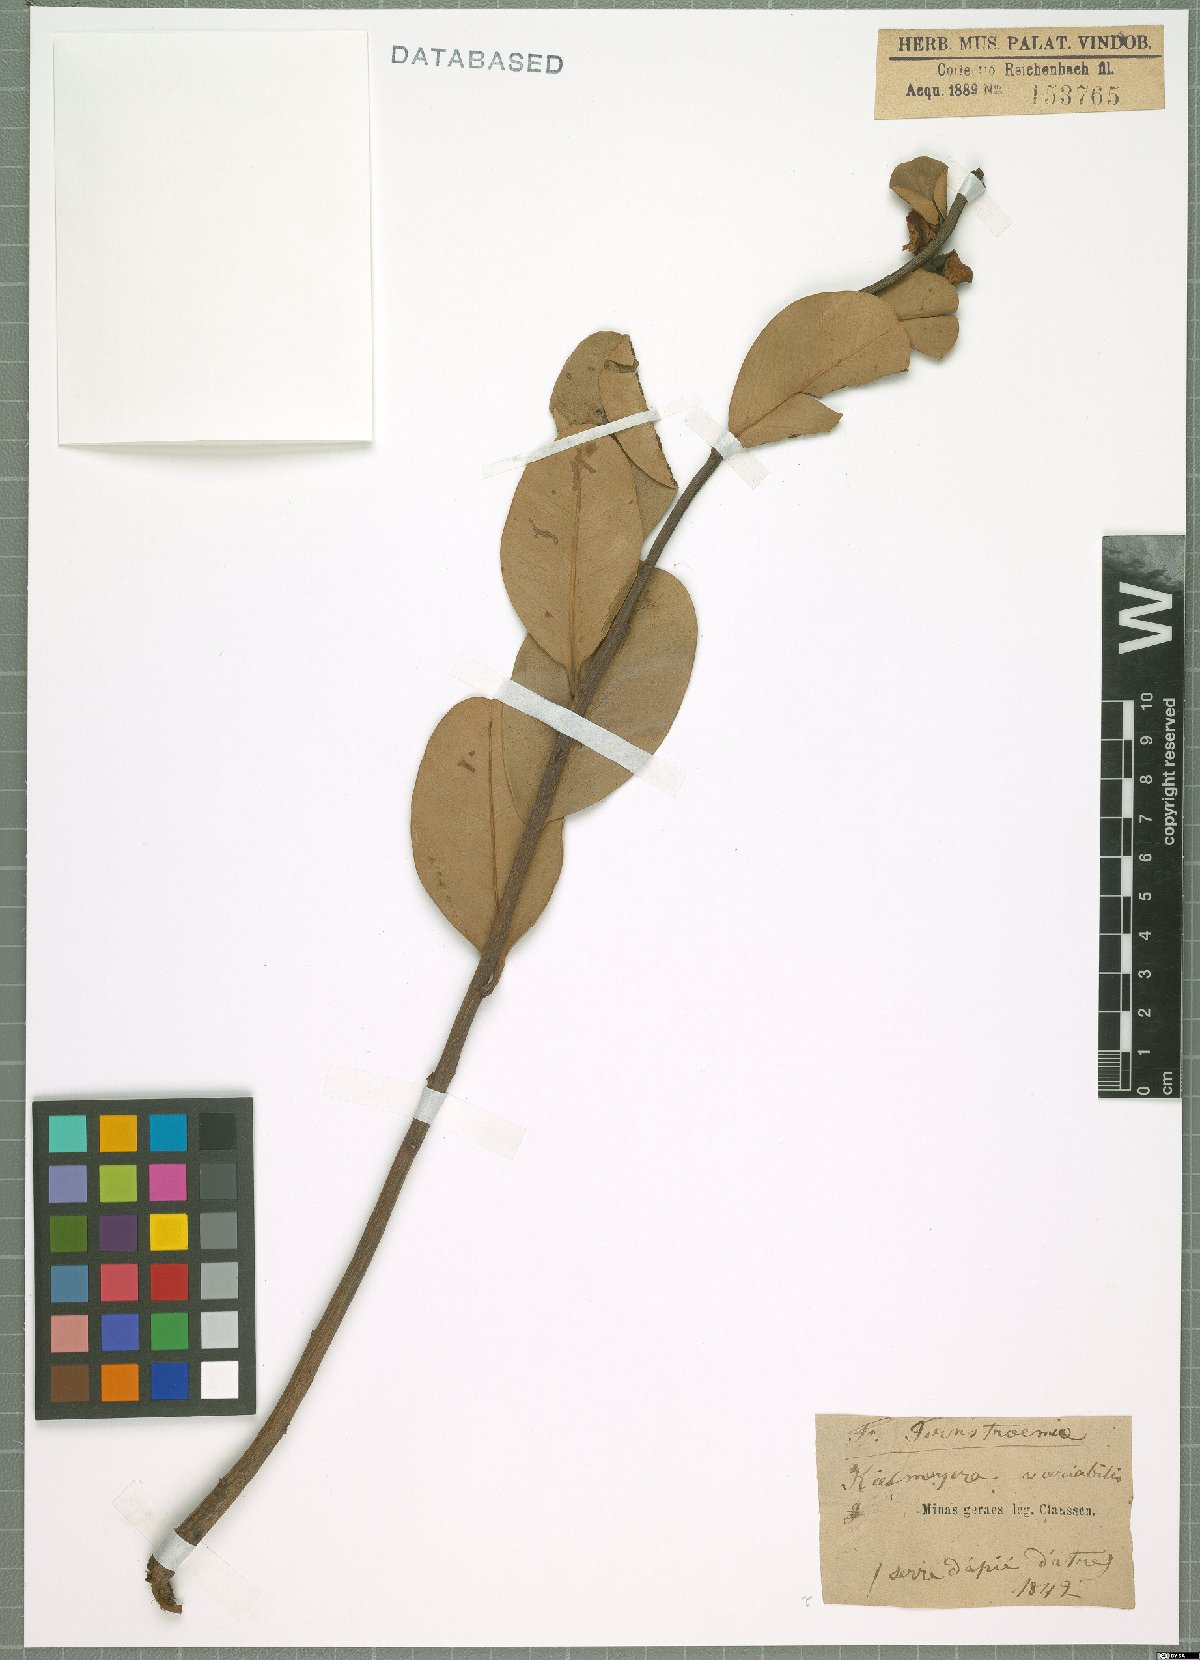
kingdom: Plantae
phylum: Tracheophyta
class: Magnoliopsida
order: Malpighiales
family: Calophyllaceae
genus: Kielmeyera
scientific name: Kielmeyera variabilis
